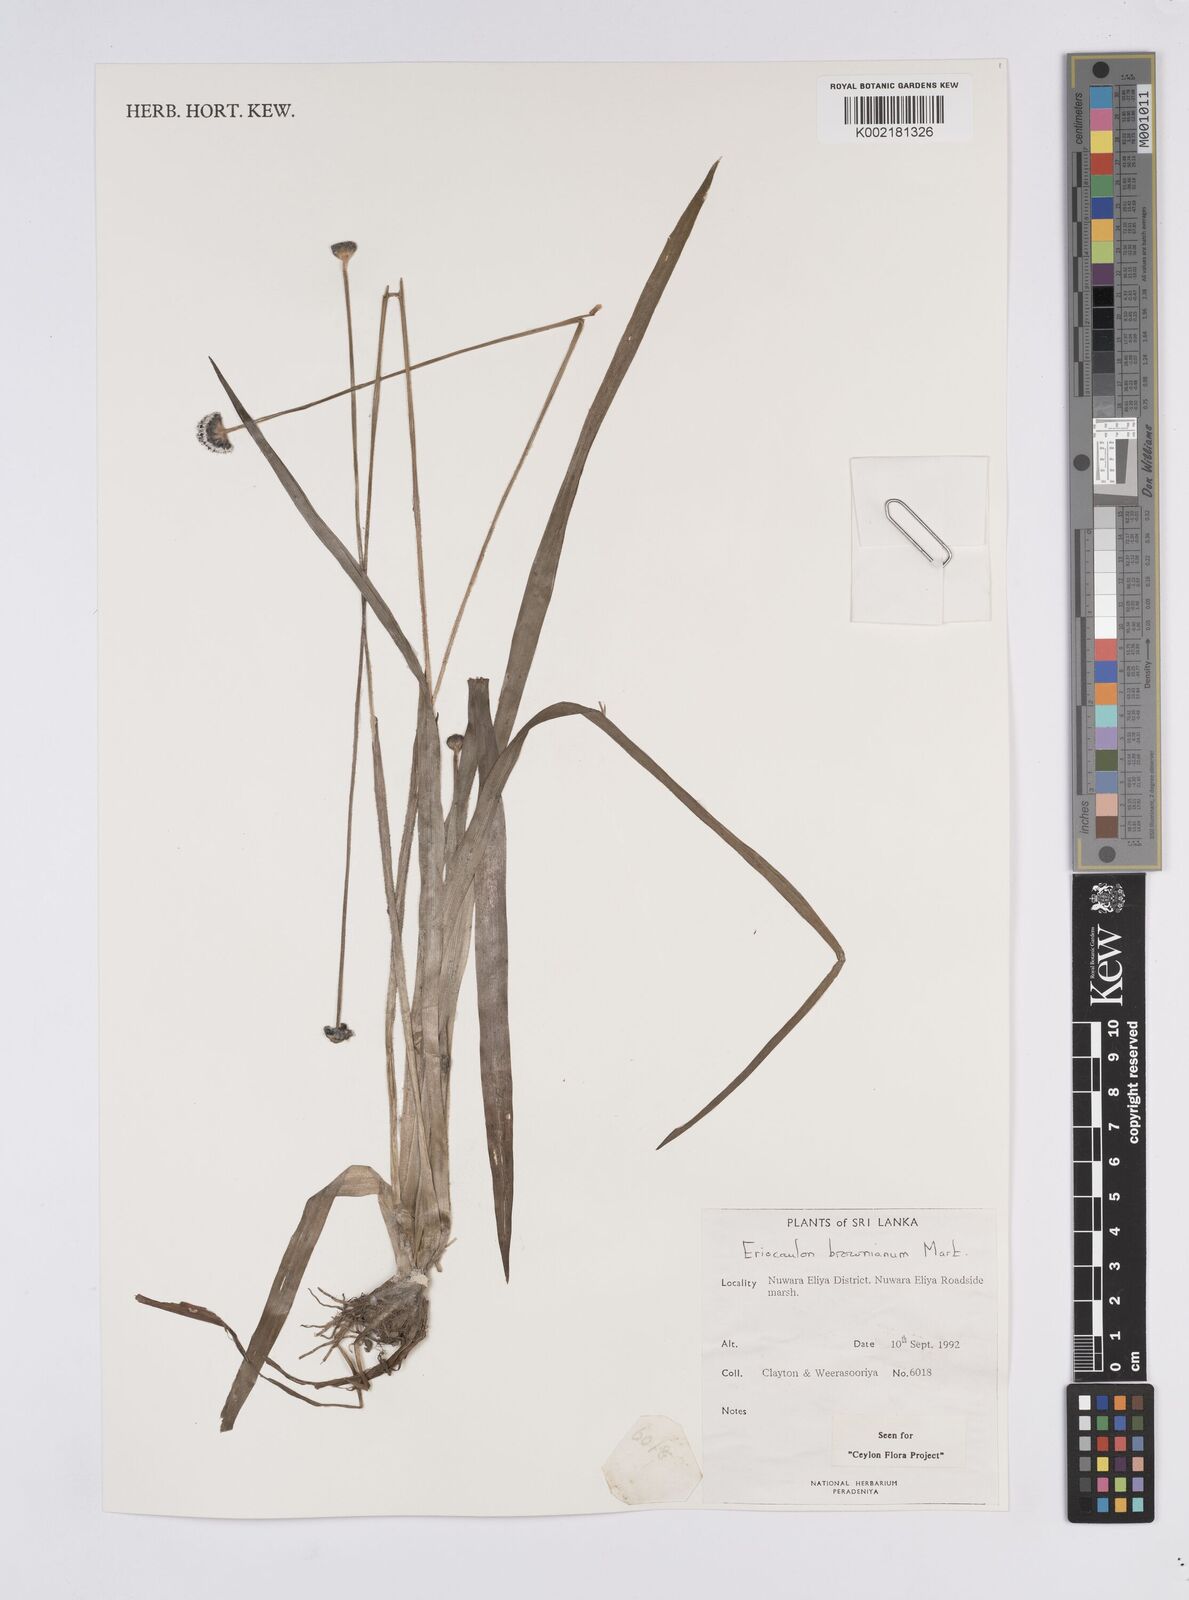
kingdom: Plantae
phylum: Tracheophyta
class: Liliopsida
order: Poales
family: Eriocaulaceae
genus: Eriocaulon
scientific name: Eriocaulon brownianum
